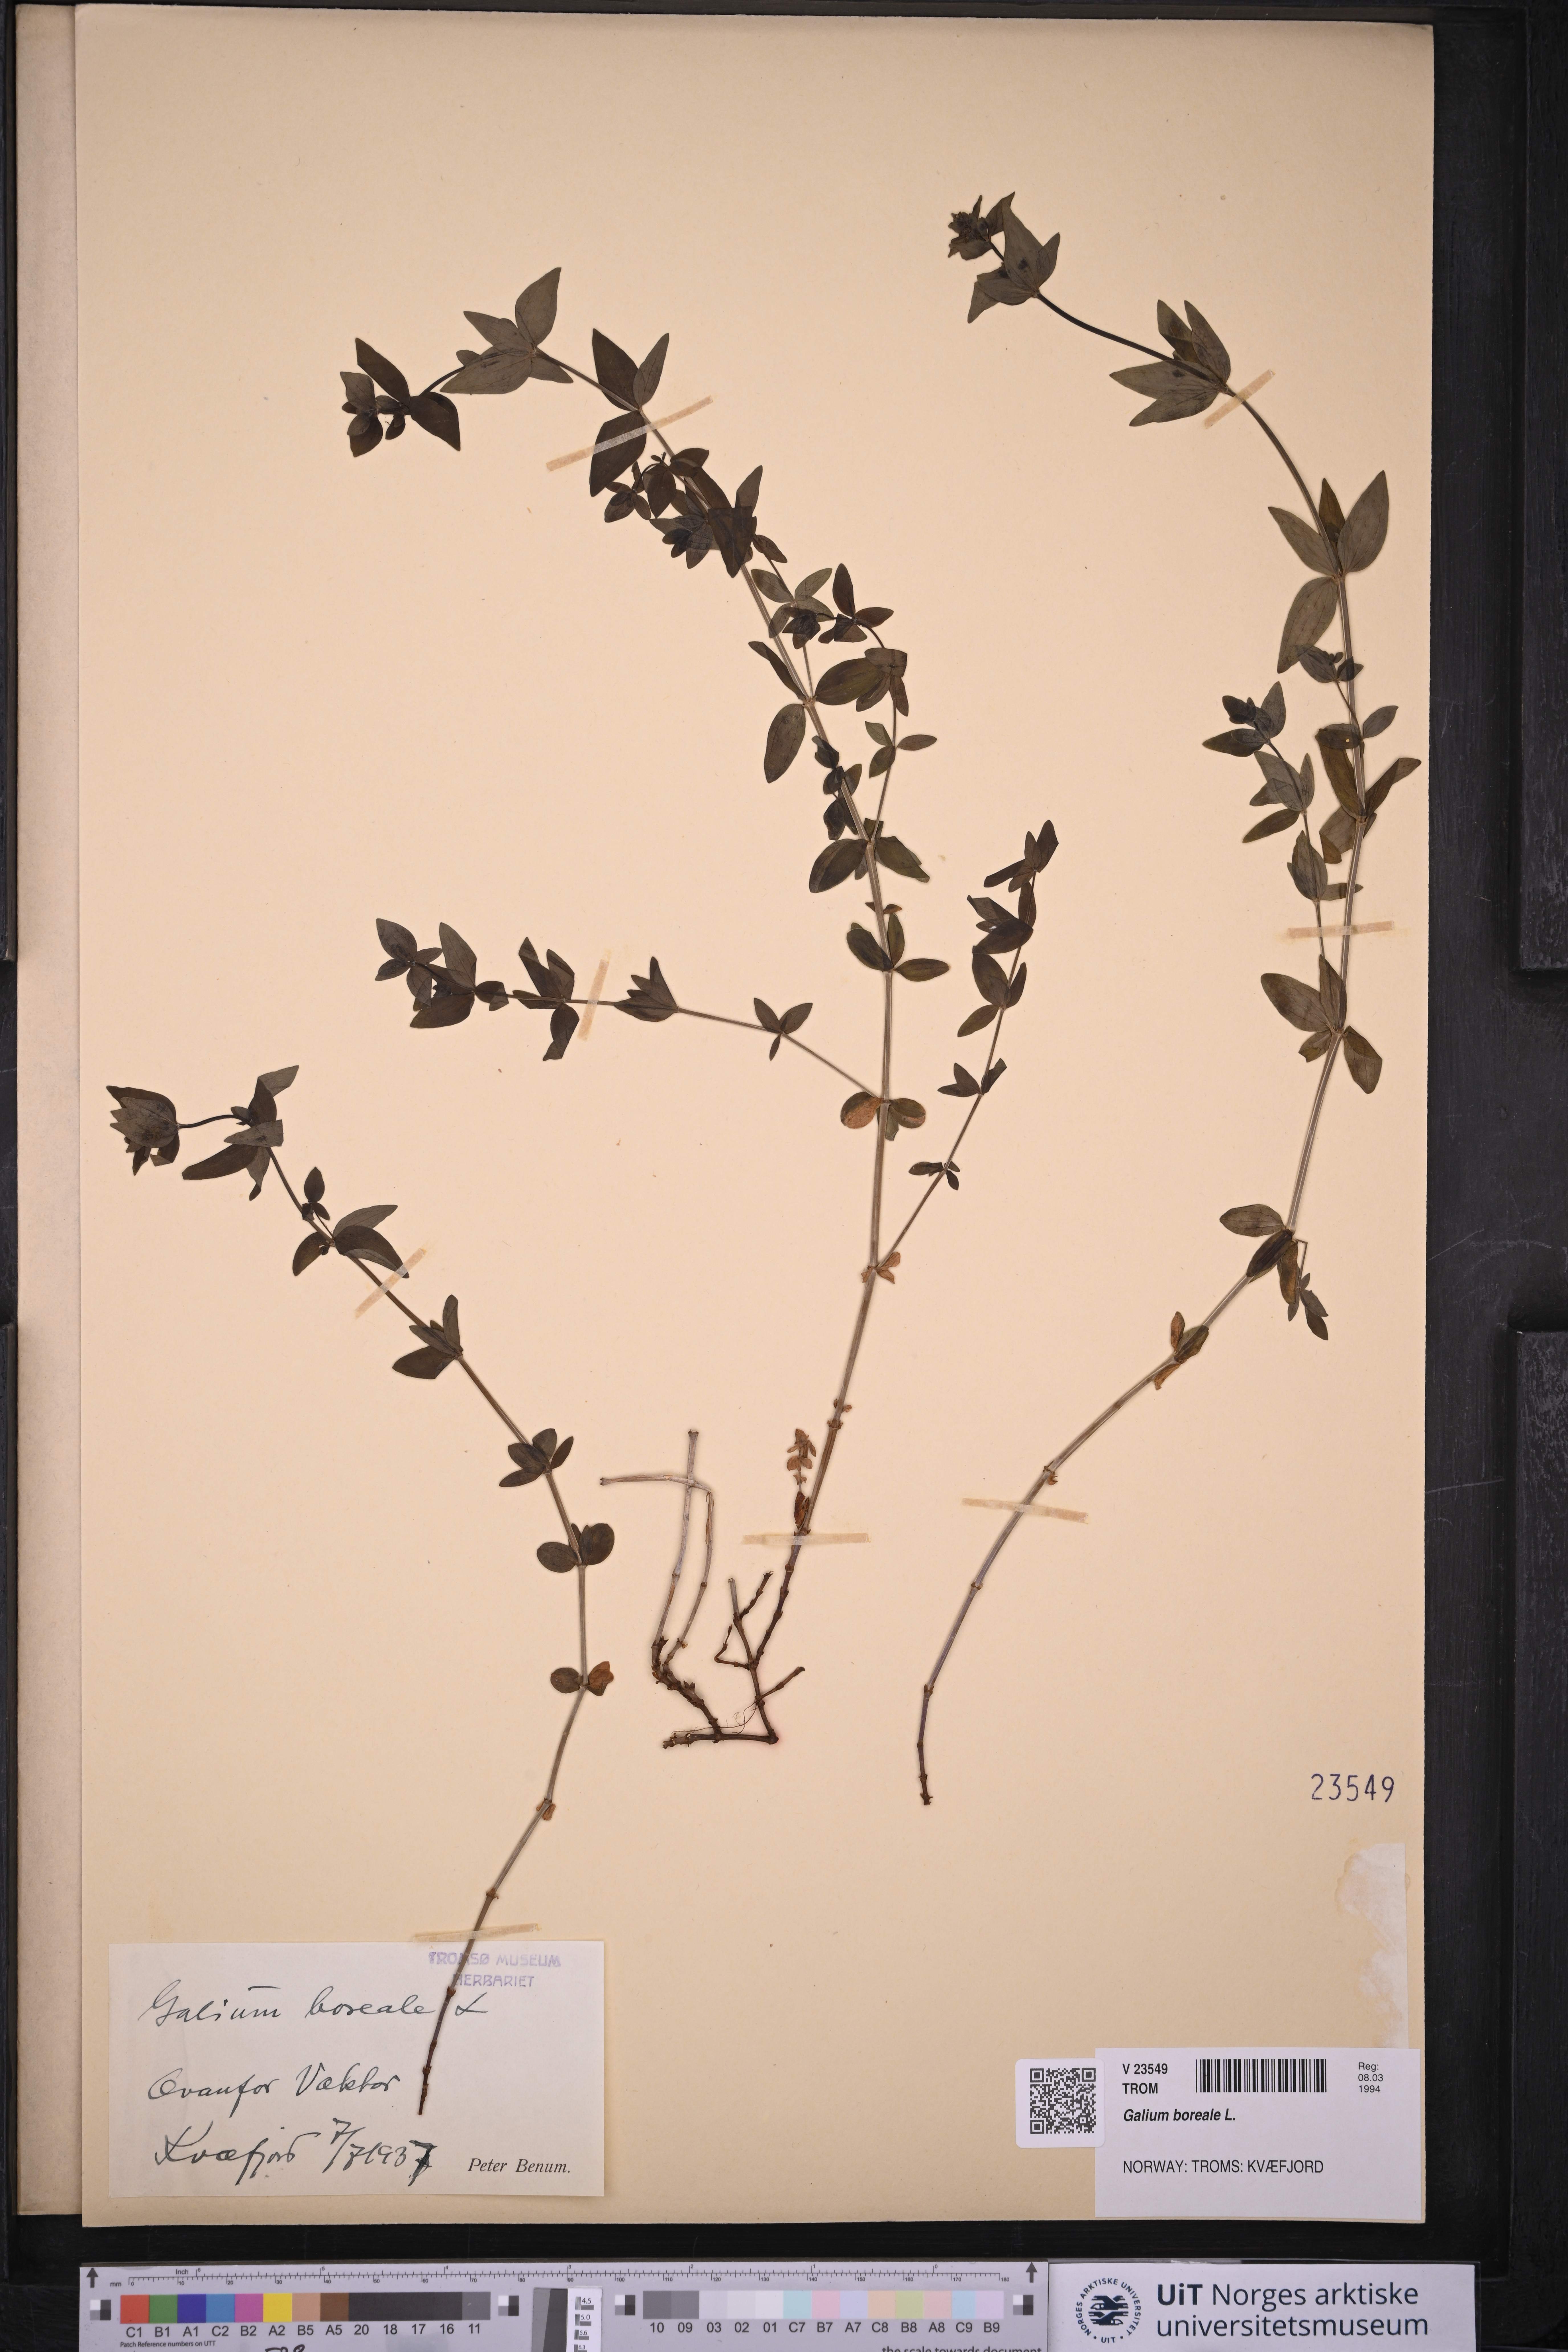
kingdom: Plantae
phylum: Tracheophyta
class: Magnoliopsida
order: Gentianales
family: Rubiaceae
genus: Galium
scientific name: Galium boreale
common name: Northern bedstraw
